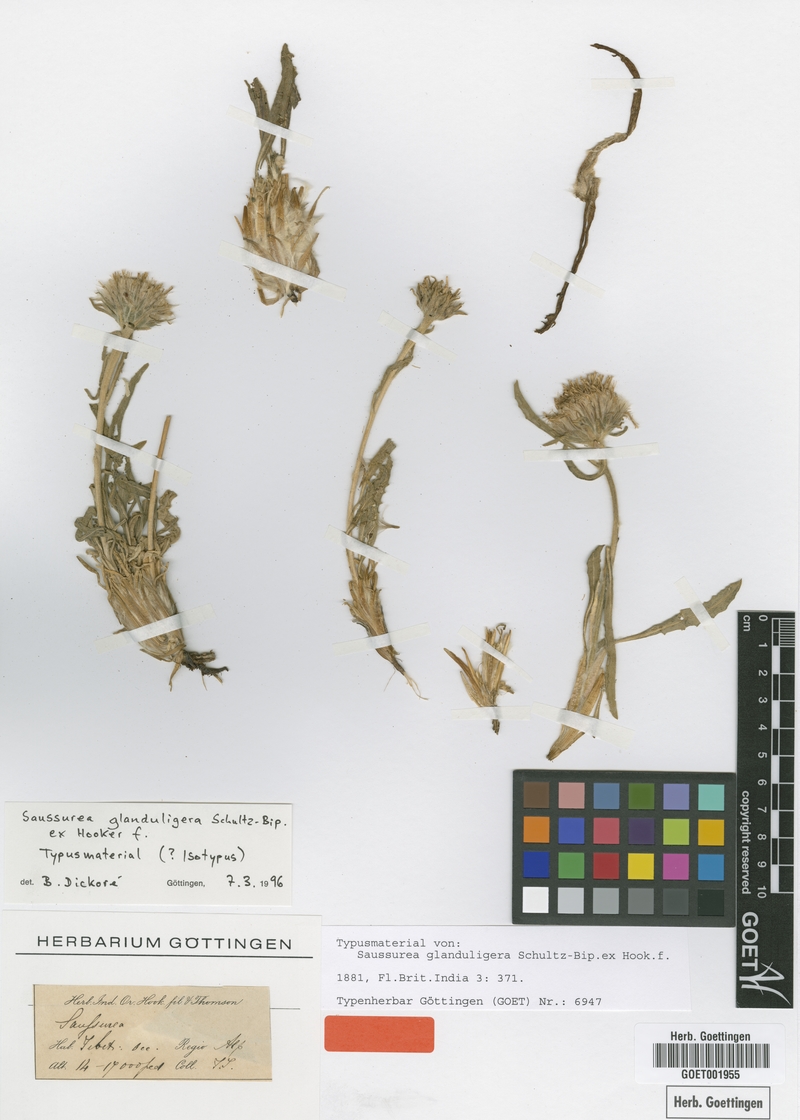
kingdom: Plantae
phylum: Tracheophyta
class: Magnoliopsida
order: Asterales
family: Asteraceae
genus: Saussurea
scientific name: Saussurea schlagintweitii
